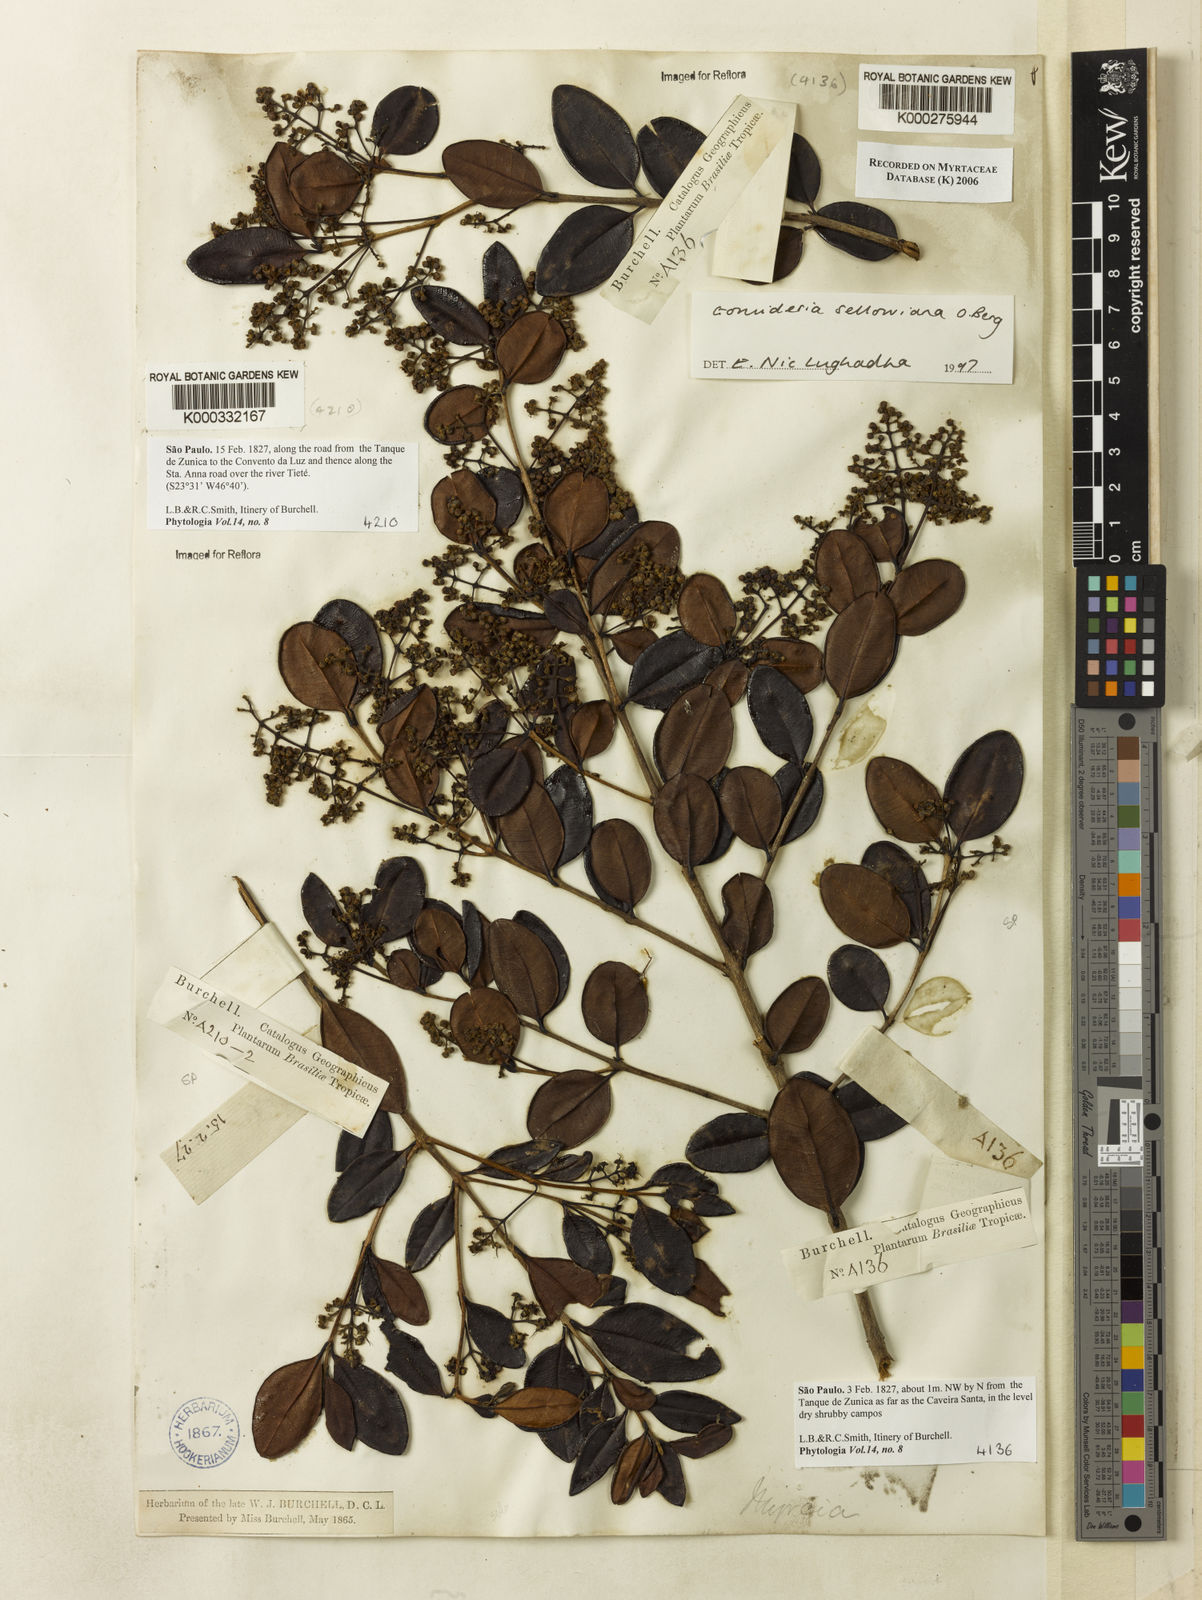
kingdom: Plantae
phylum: Tracheophyta
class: Magnoliopsida
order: Myrtales
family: Myrtaceae
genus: Myrcia
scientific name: Myrcia hartwegiana
